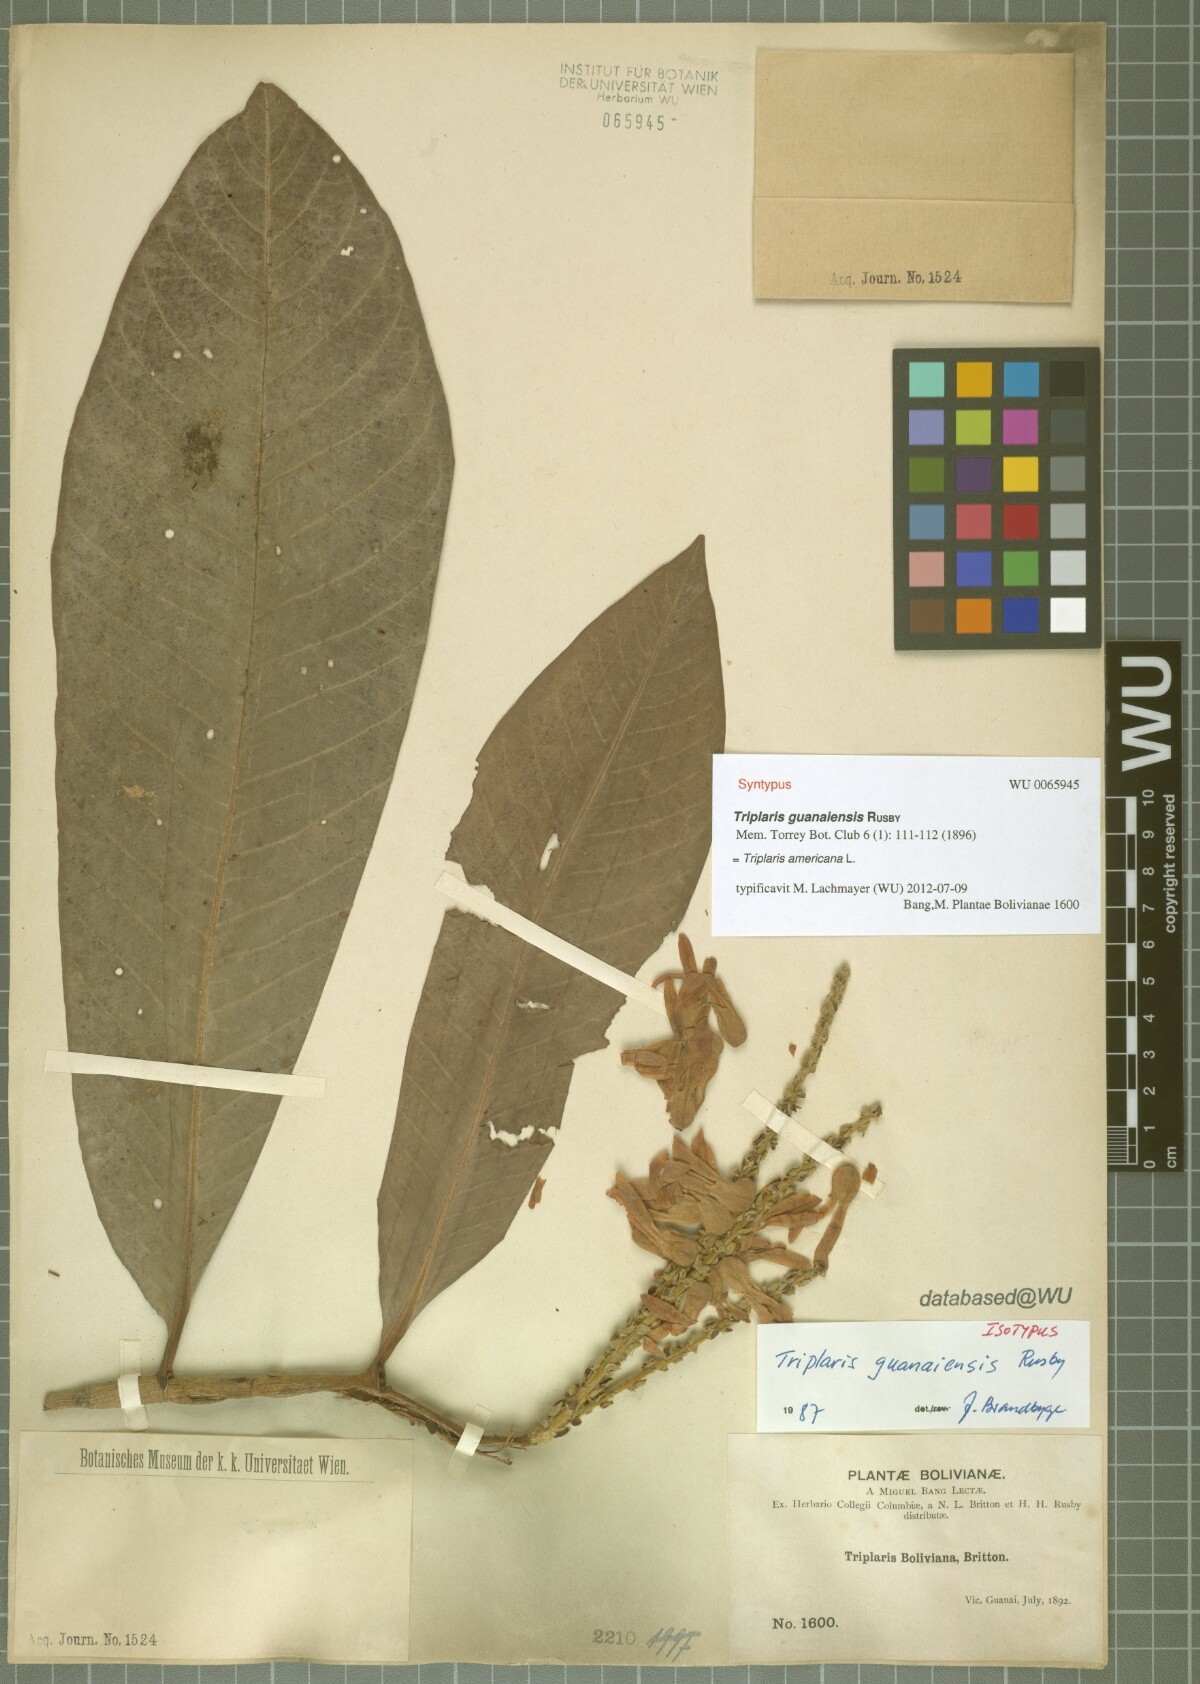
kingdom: Plantae
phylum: Tracheophyta
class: Magnoliopsida
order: Caryophyllales
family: Polygonaceae
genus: Triplaris
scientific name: Triplaris americana
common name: Ant-tree
